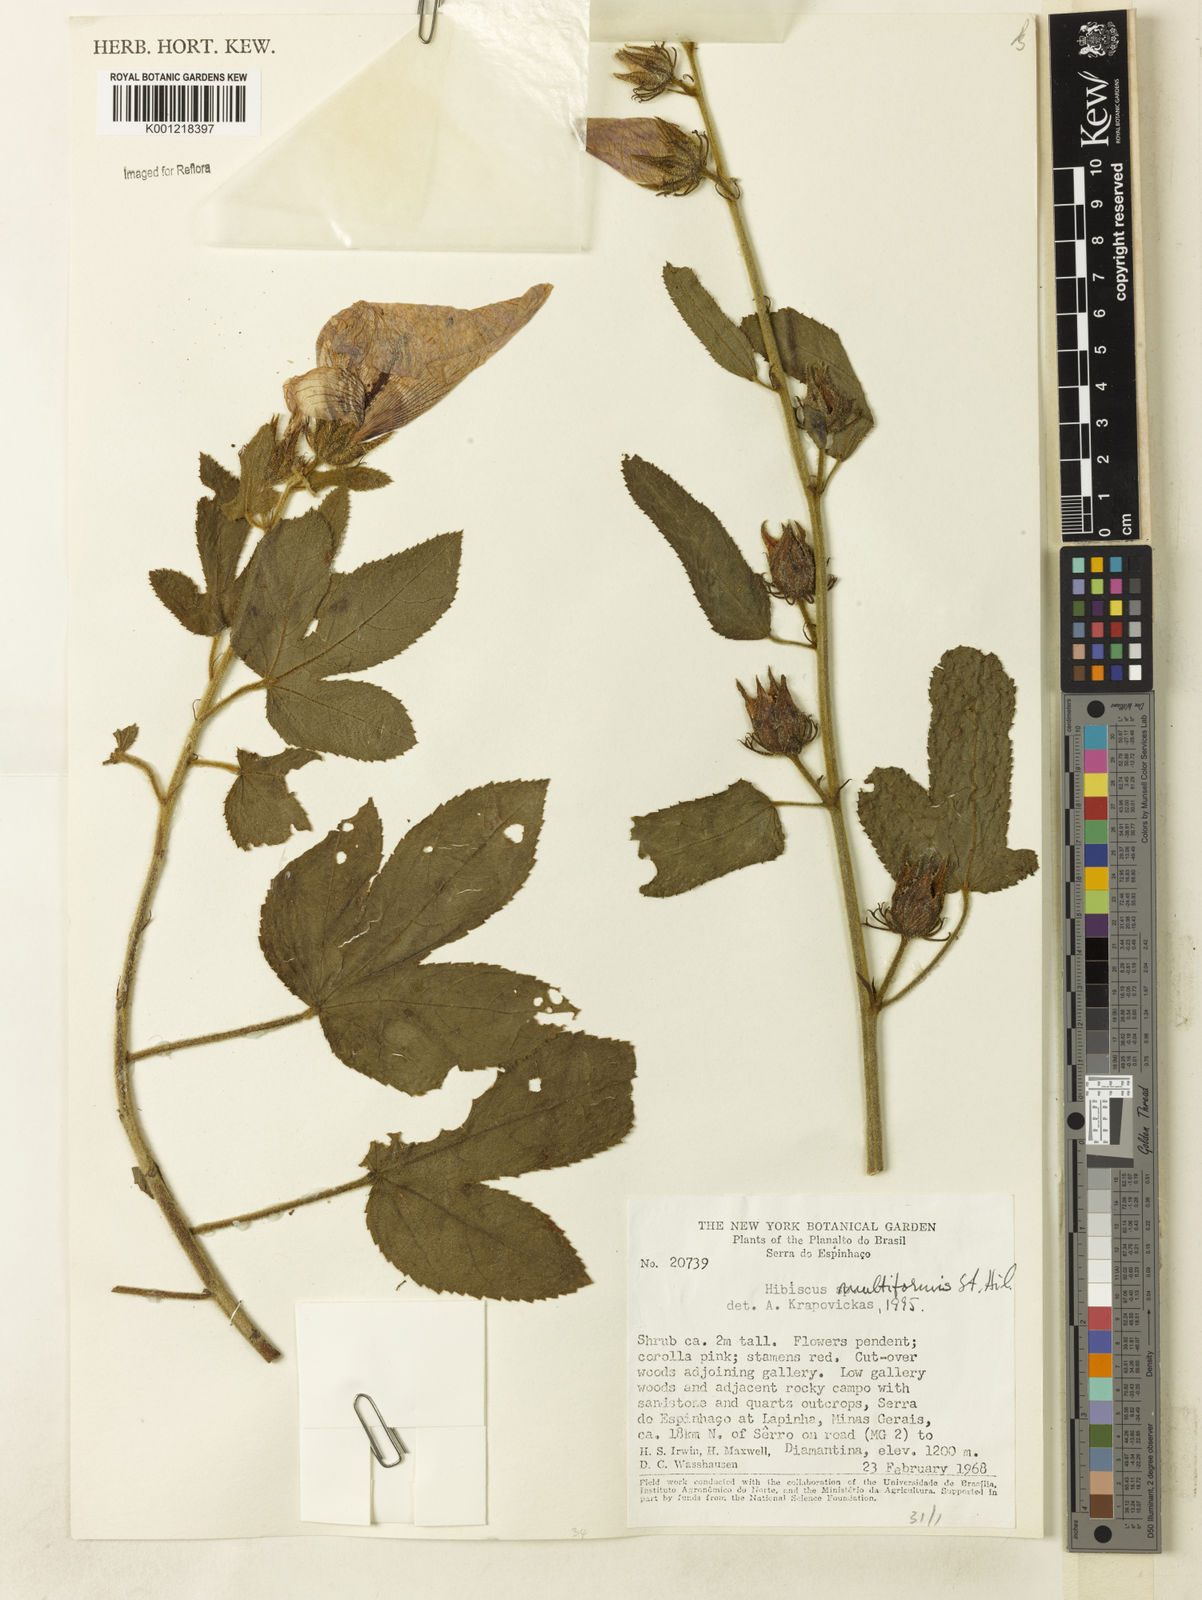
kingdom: Plantae
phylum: Tracheophyta
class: Magnoliopsida
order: Malvales
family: Malvaceae
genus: Hibiscus
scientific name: Hibiscus multiformis
